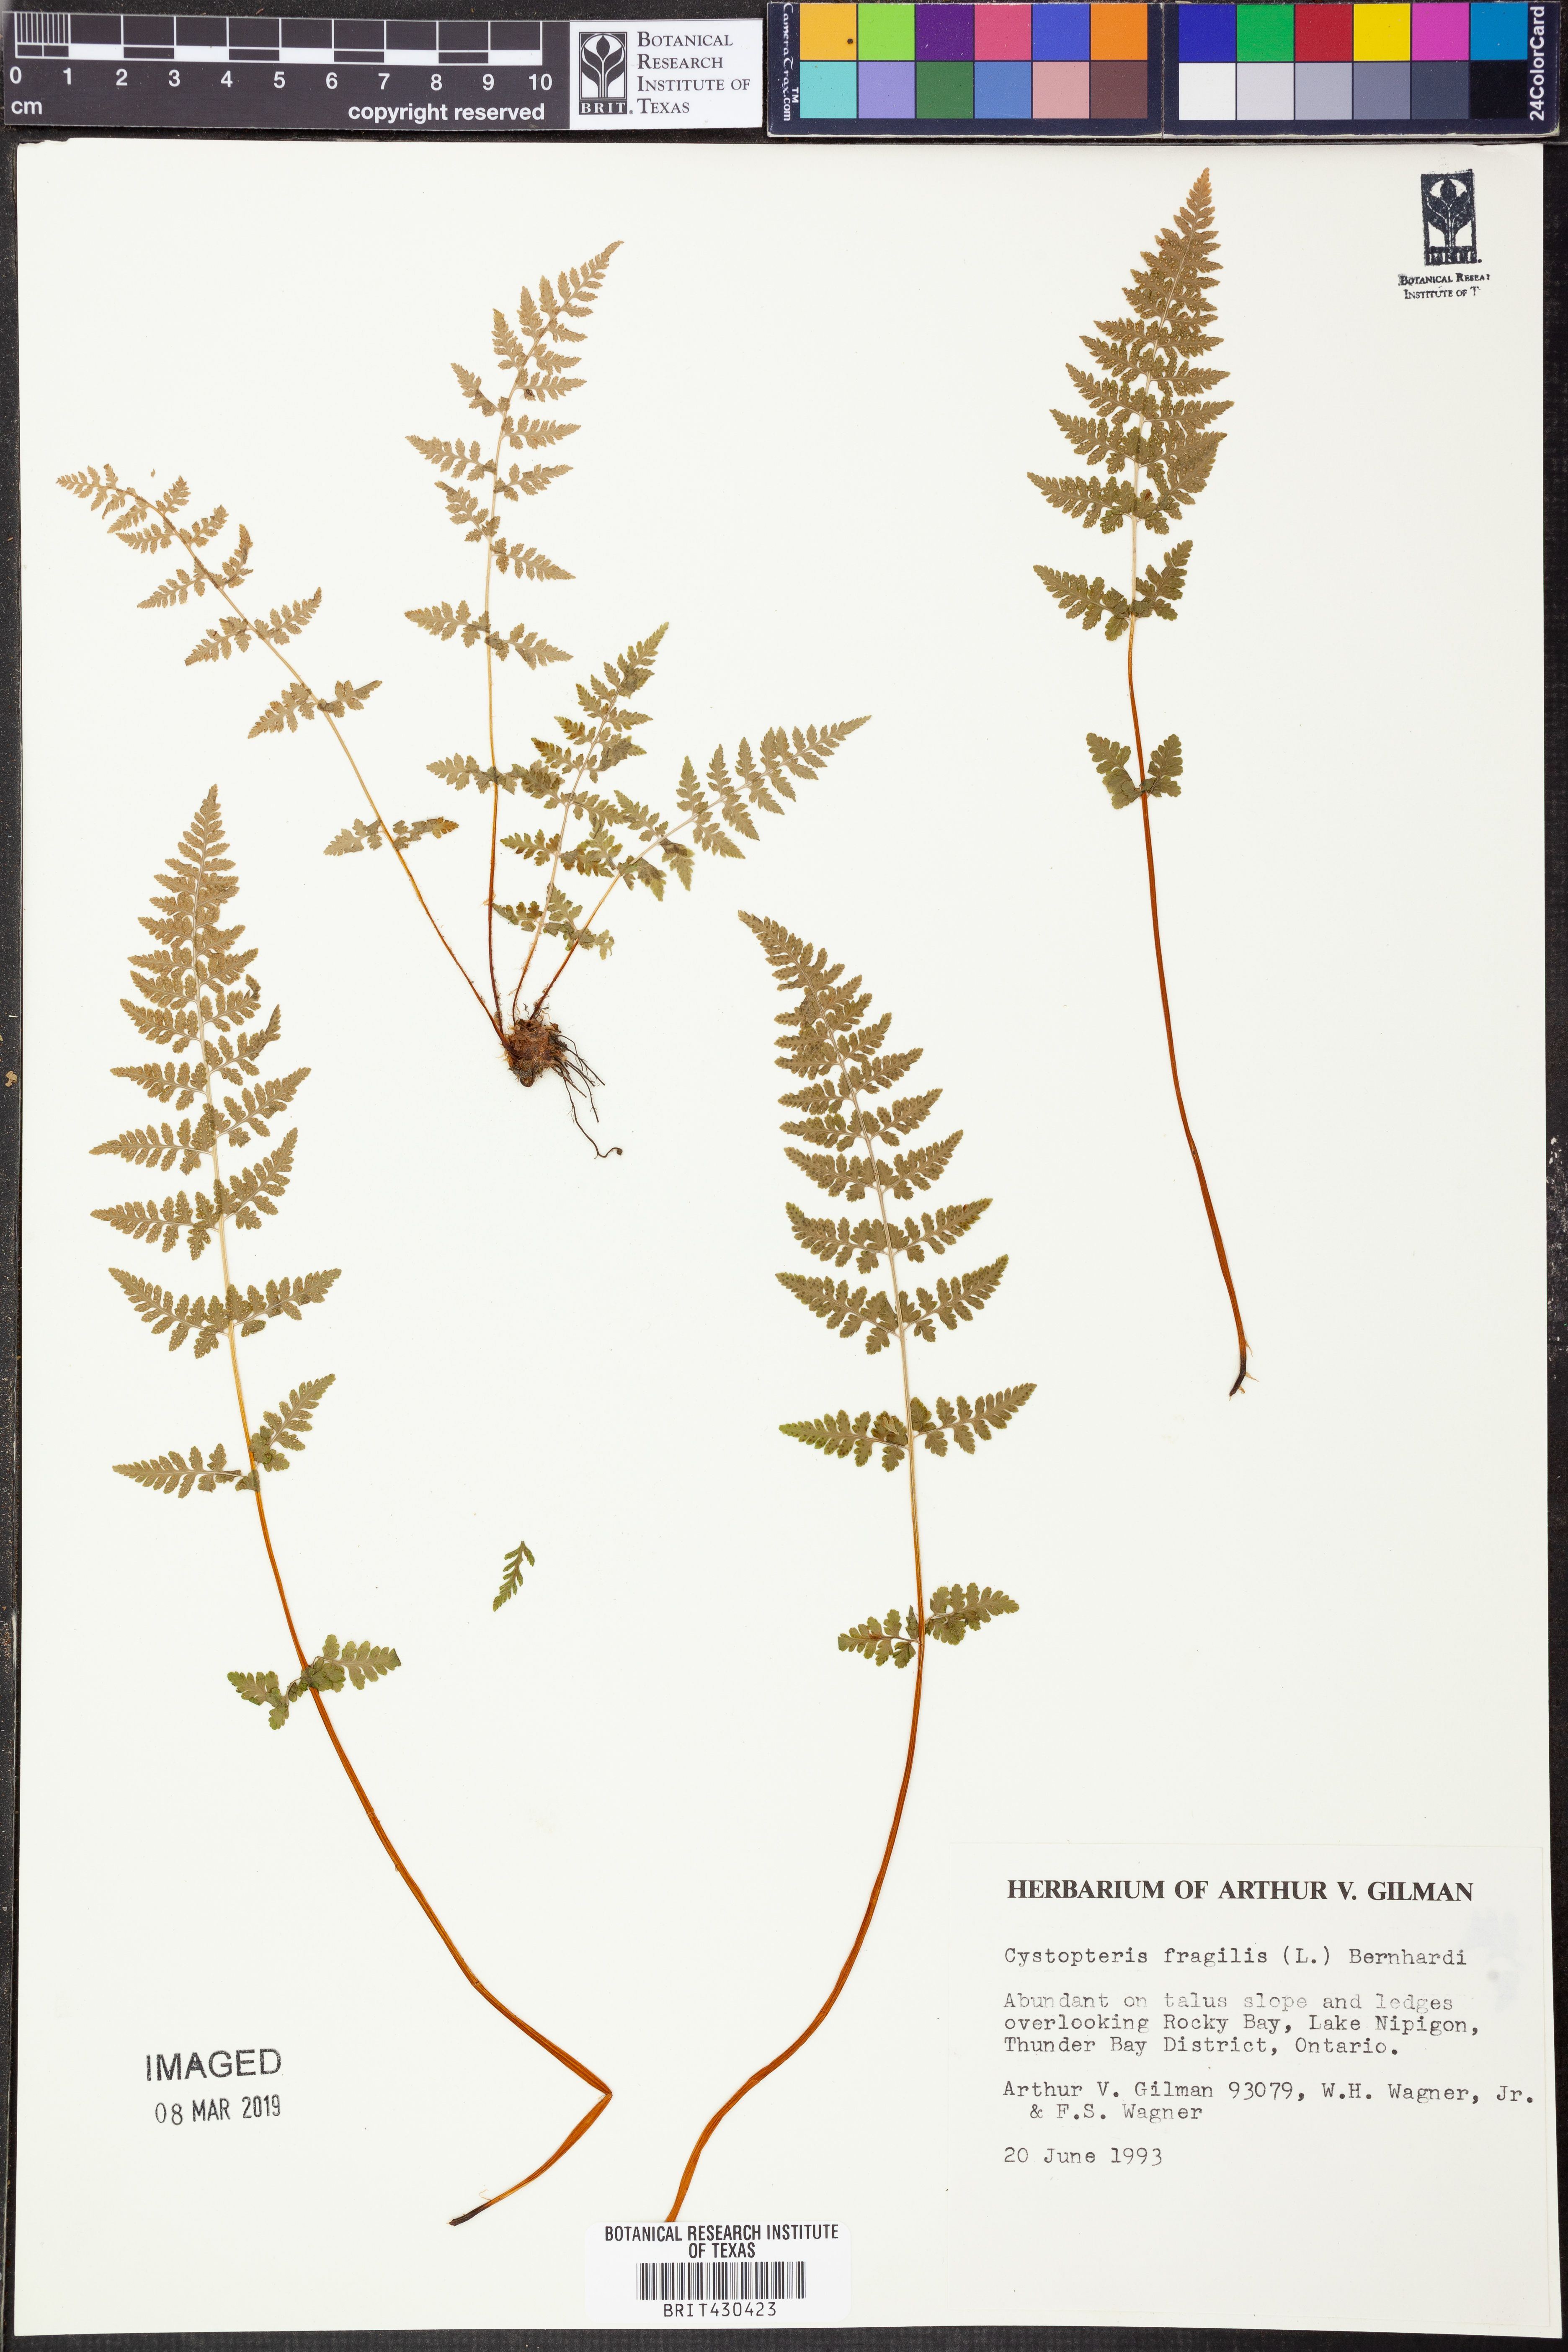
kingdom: Plantae
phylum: Tracheophyta
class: Polypodiopsida
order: Polypodiales
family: Cystopteridaceae
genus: Cystopteris
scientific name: Cystopteris fragilis
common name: Brittle bladder fern
